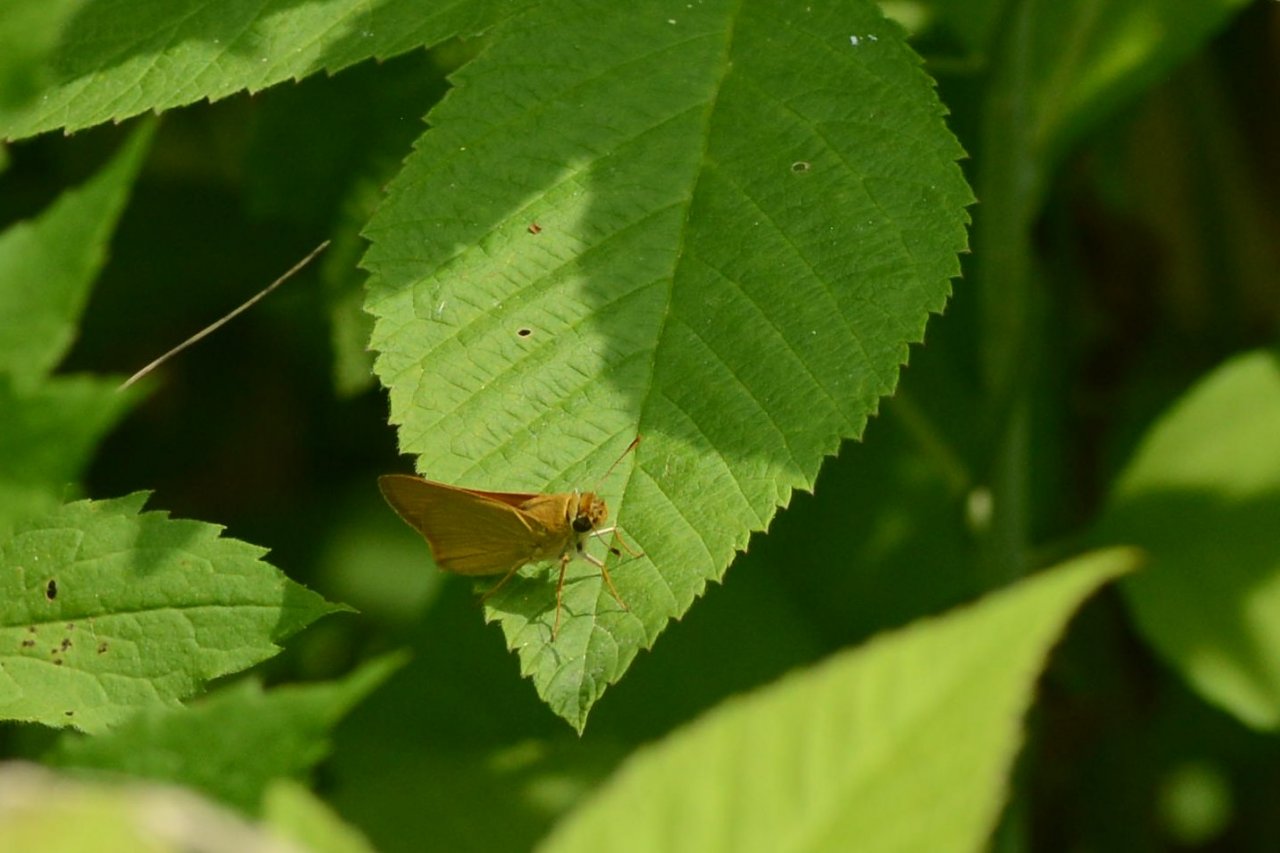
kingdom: Animalia
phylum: Arthropoda
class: Insecta
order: Lepidoptera
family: Hesperiidae
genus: Atrytone
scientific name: Atrytone delaware
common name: Delaware Skipper
